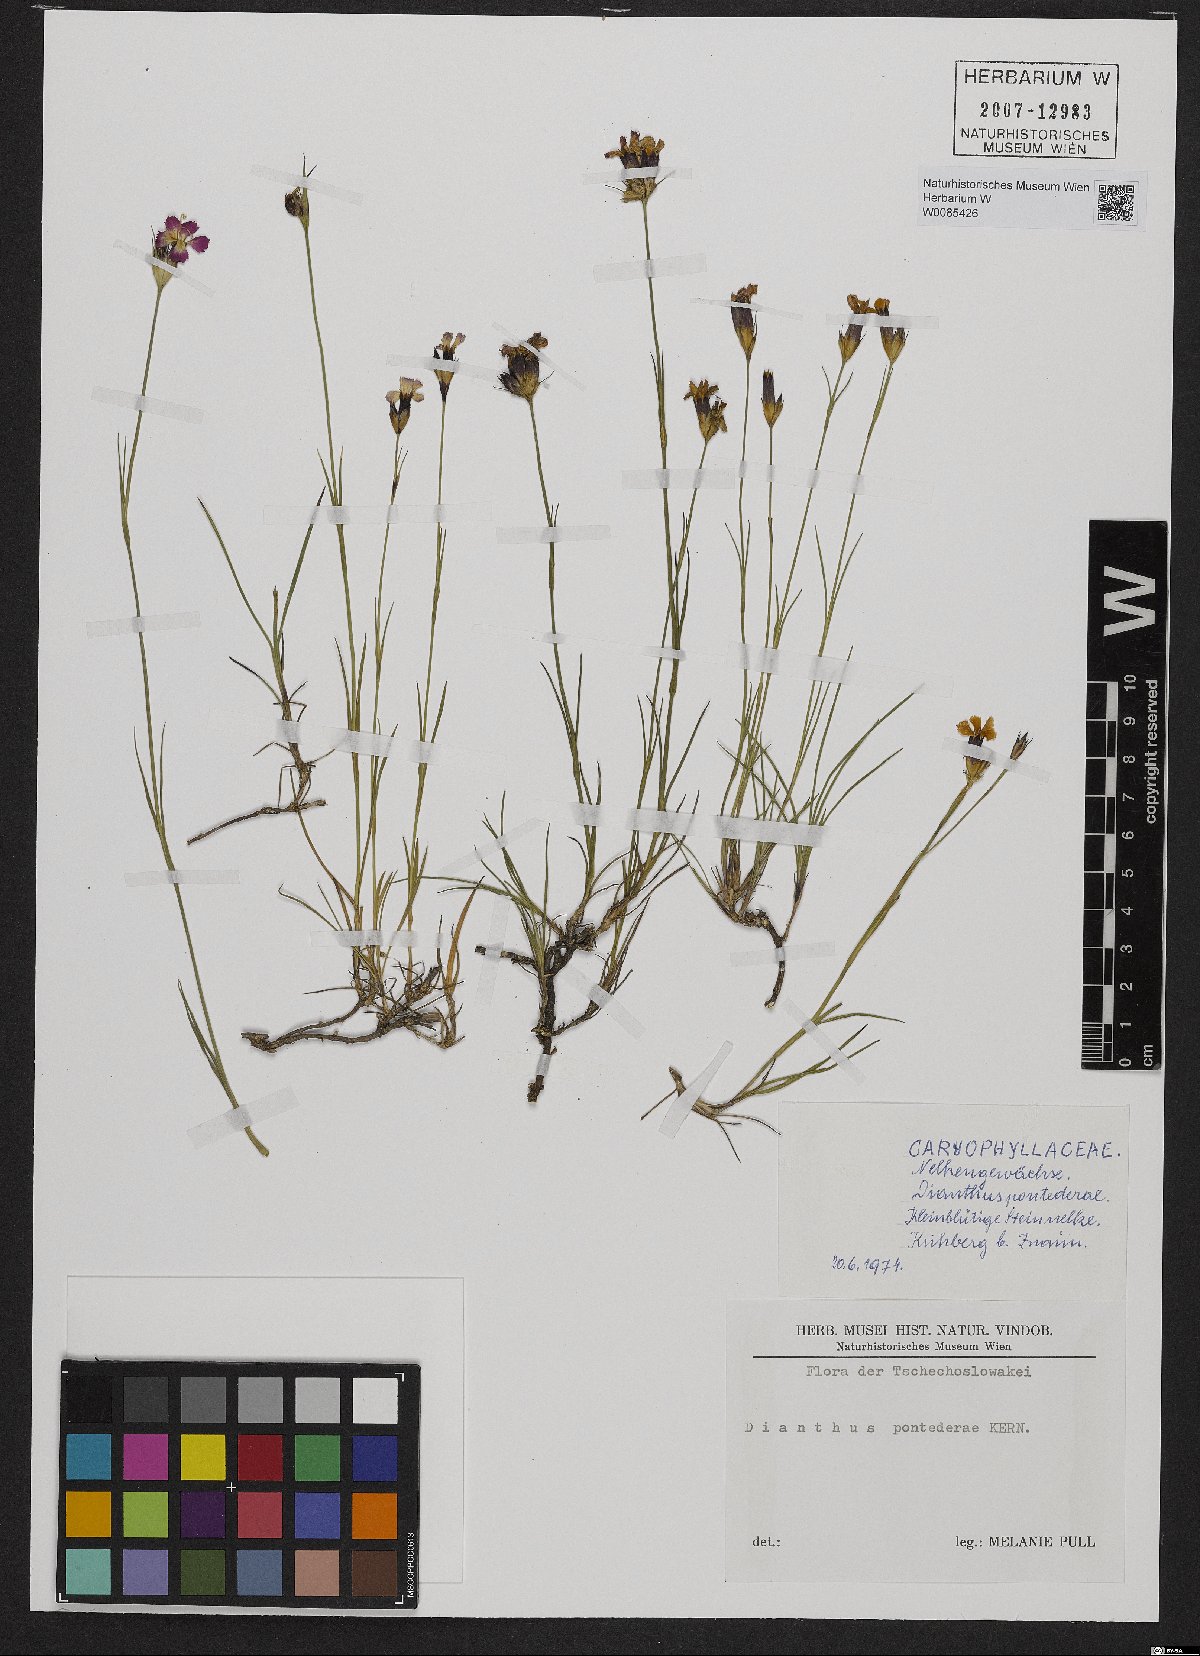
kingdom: Plantae
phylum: Tracheophyta
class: Magnoliopsida
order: Caryophyllales
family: Caryophyllaceae
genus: Dianthus
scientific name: Dianthus pontederae
